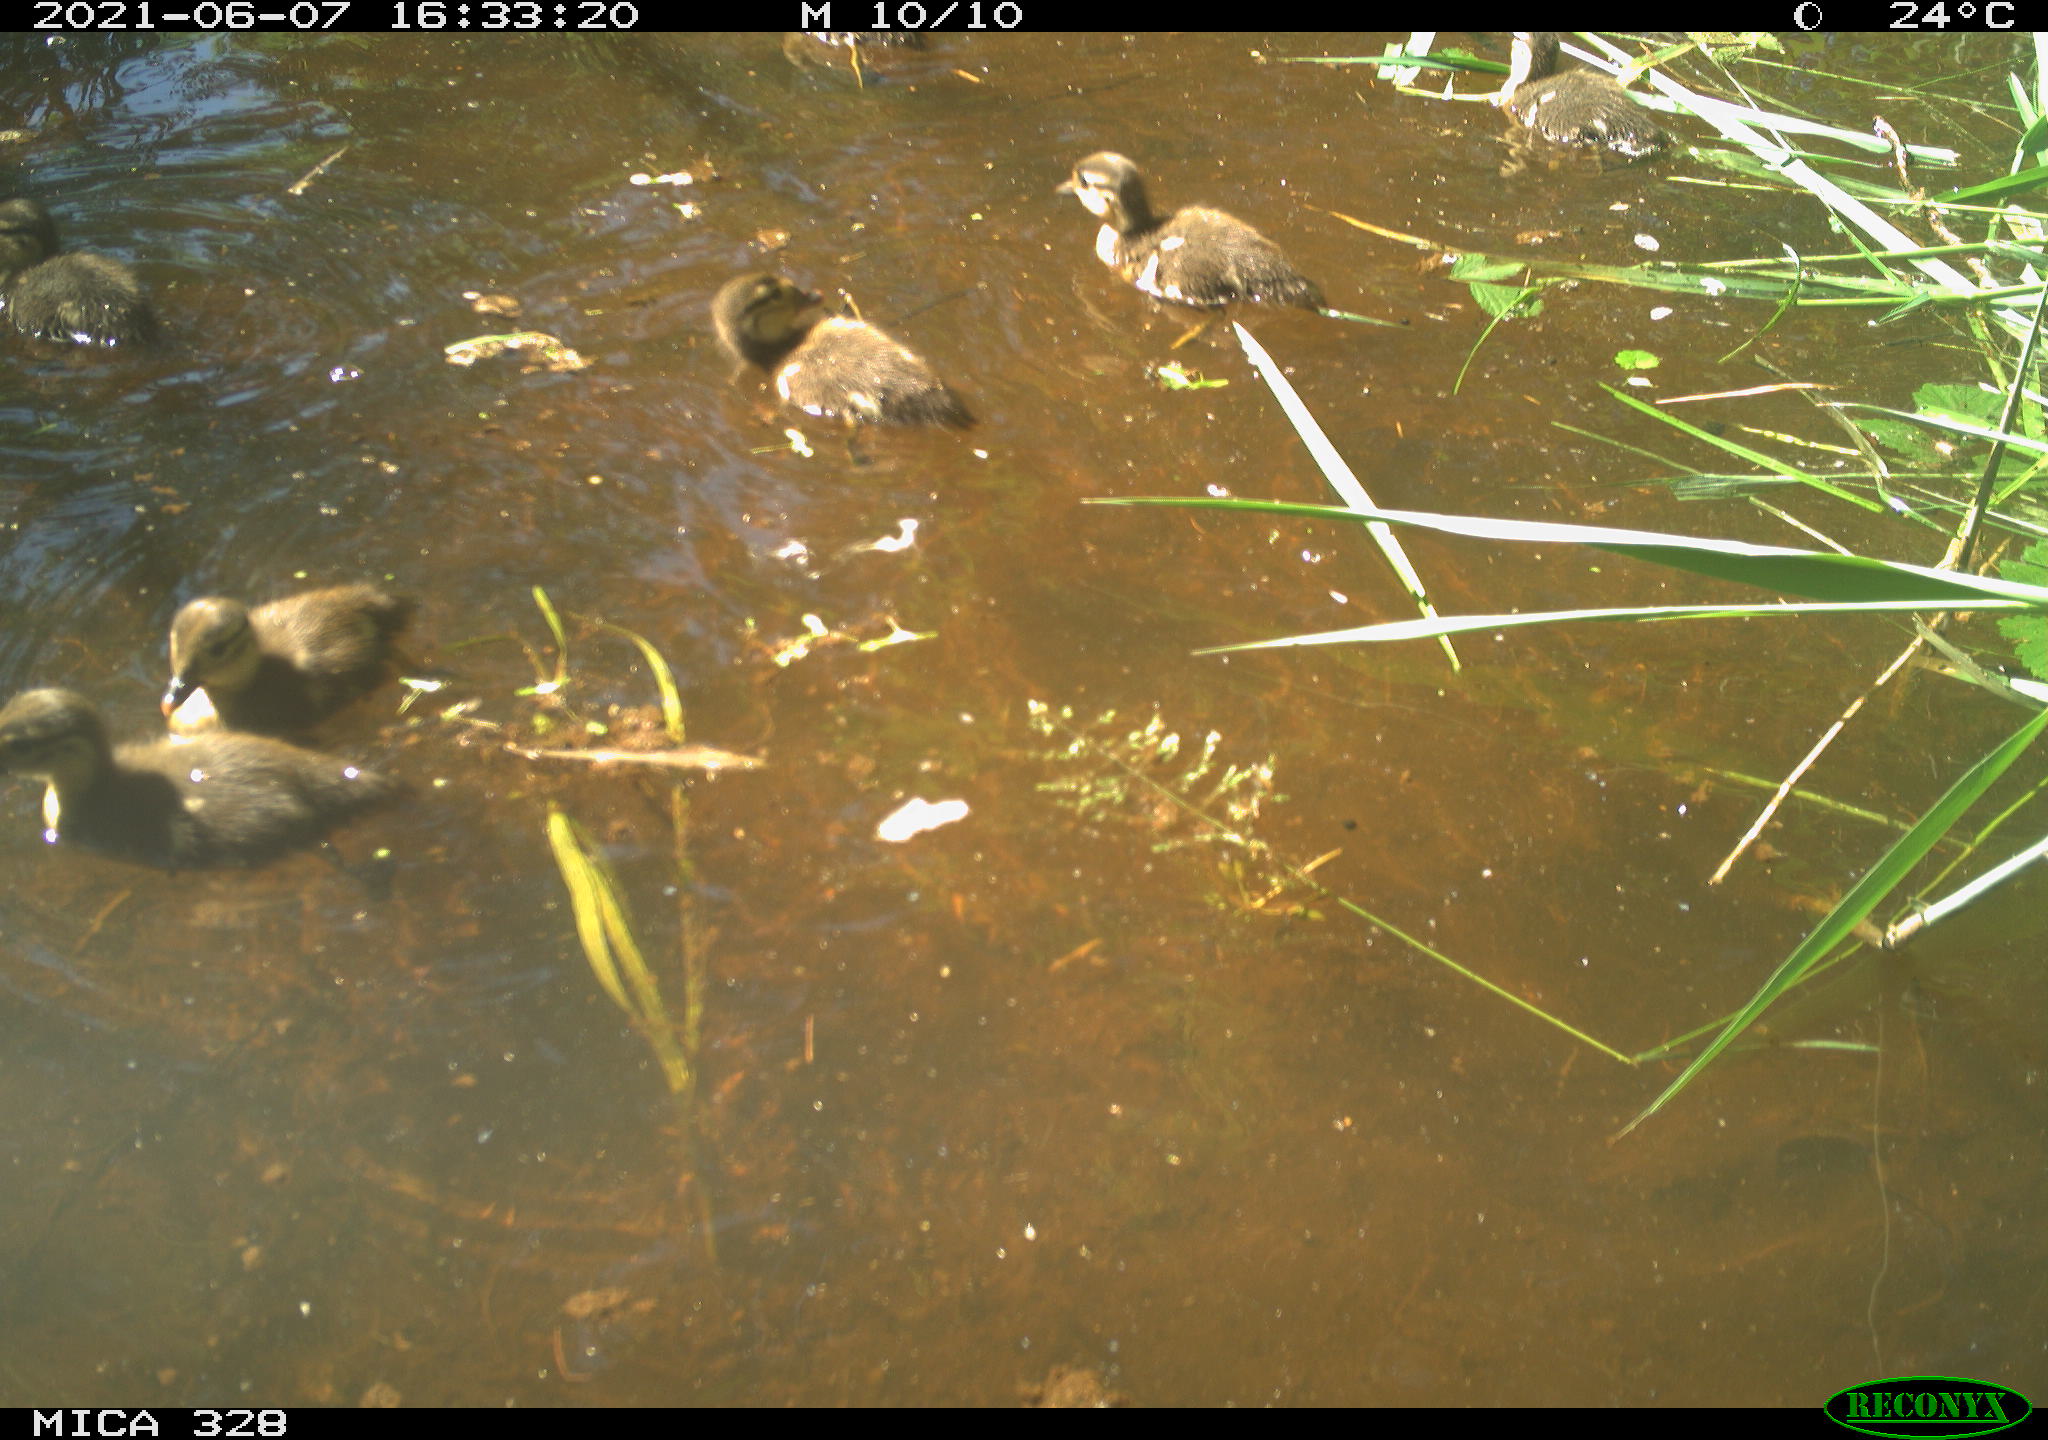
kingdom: Animalia
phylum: Chordata
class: Aves
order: Anseriformes
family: Anatidae
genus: Aix
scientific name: Aix galericulata
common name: Mandarin duck
